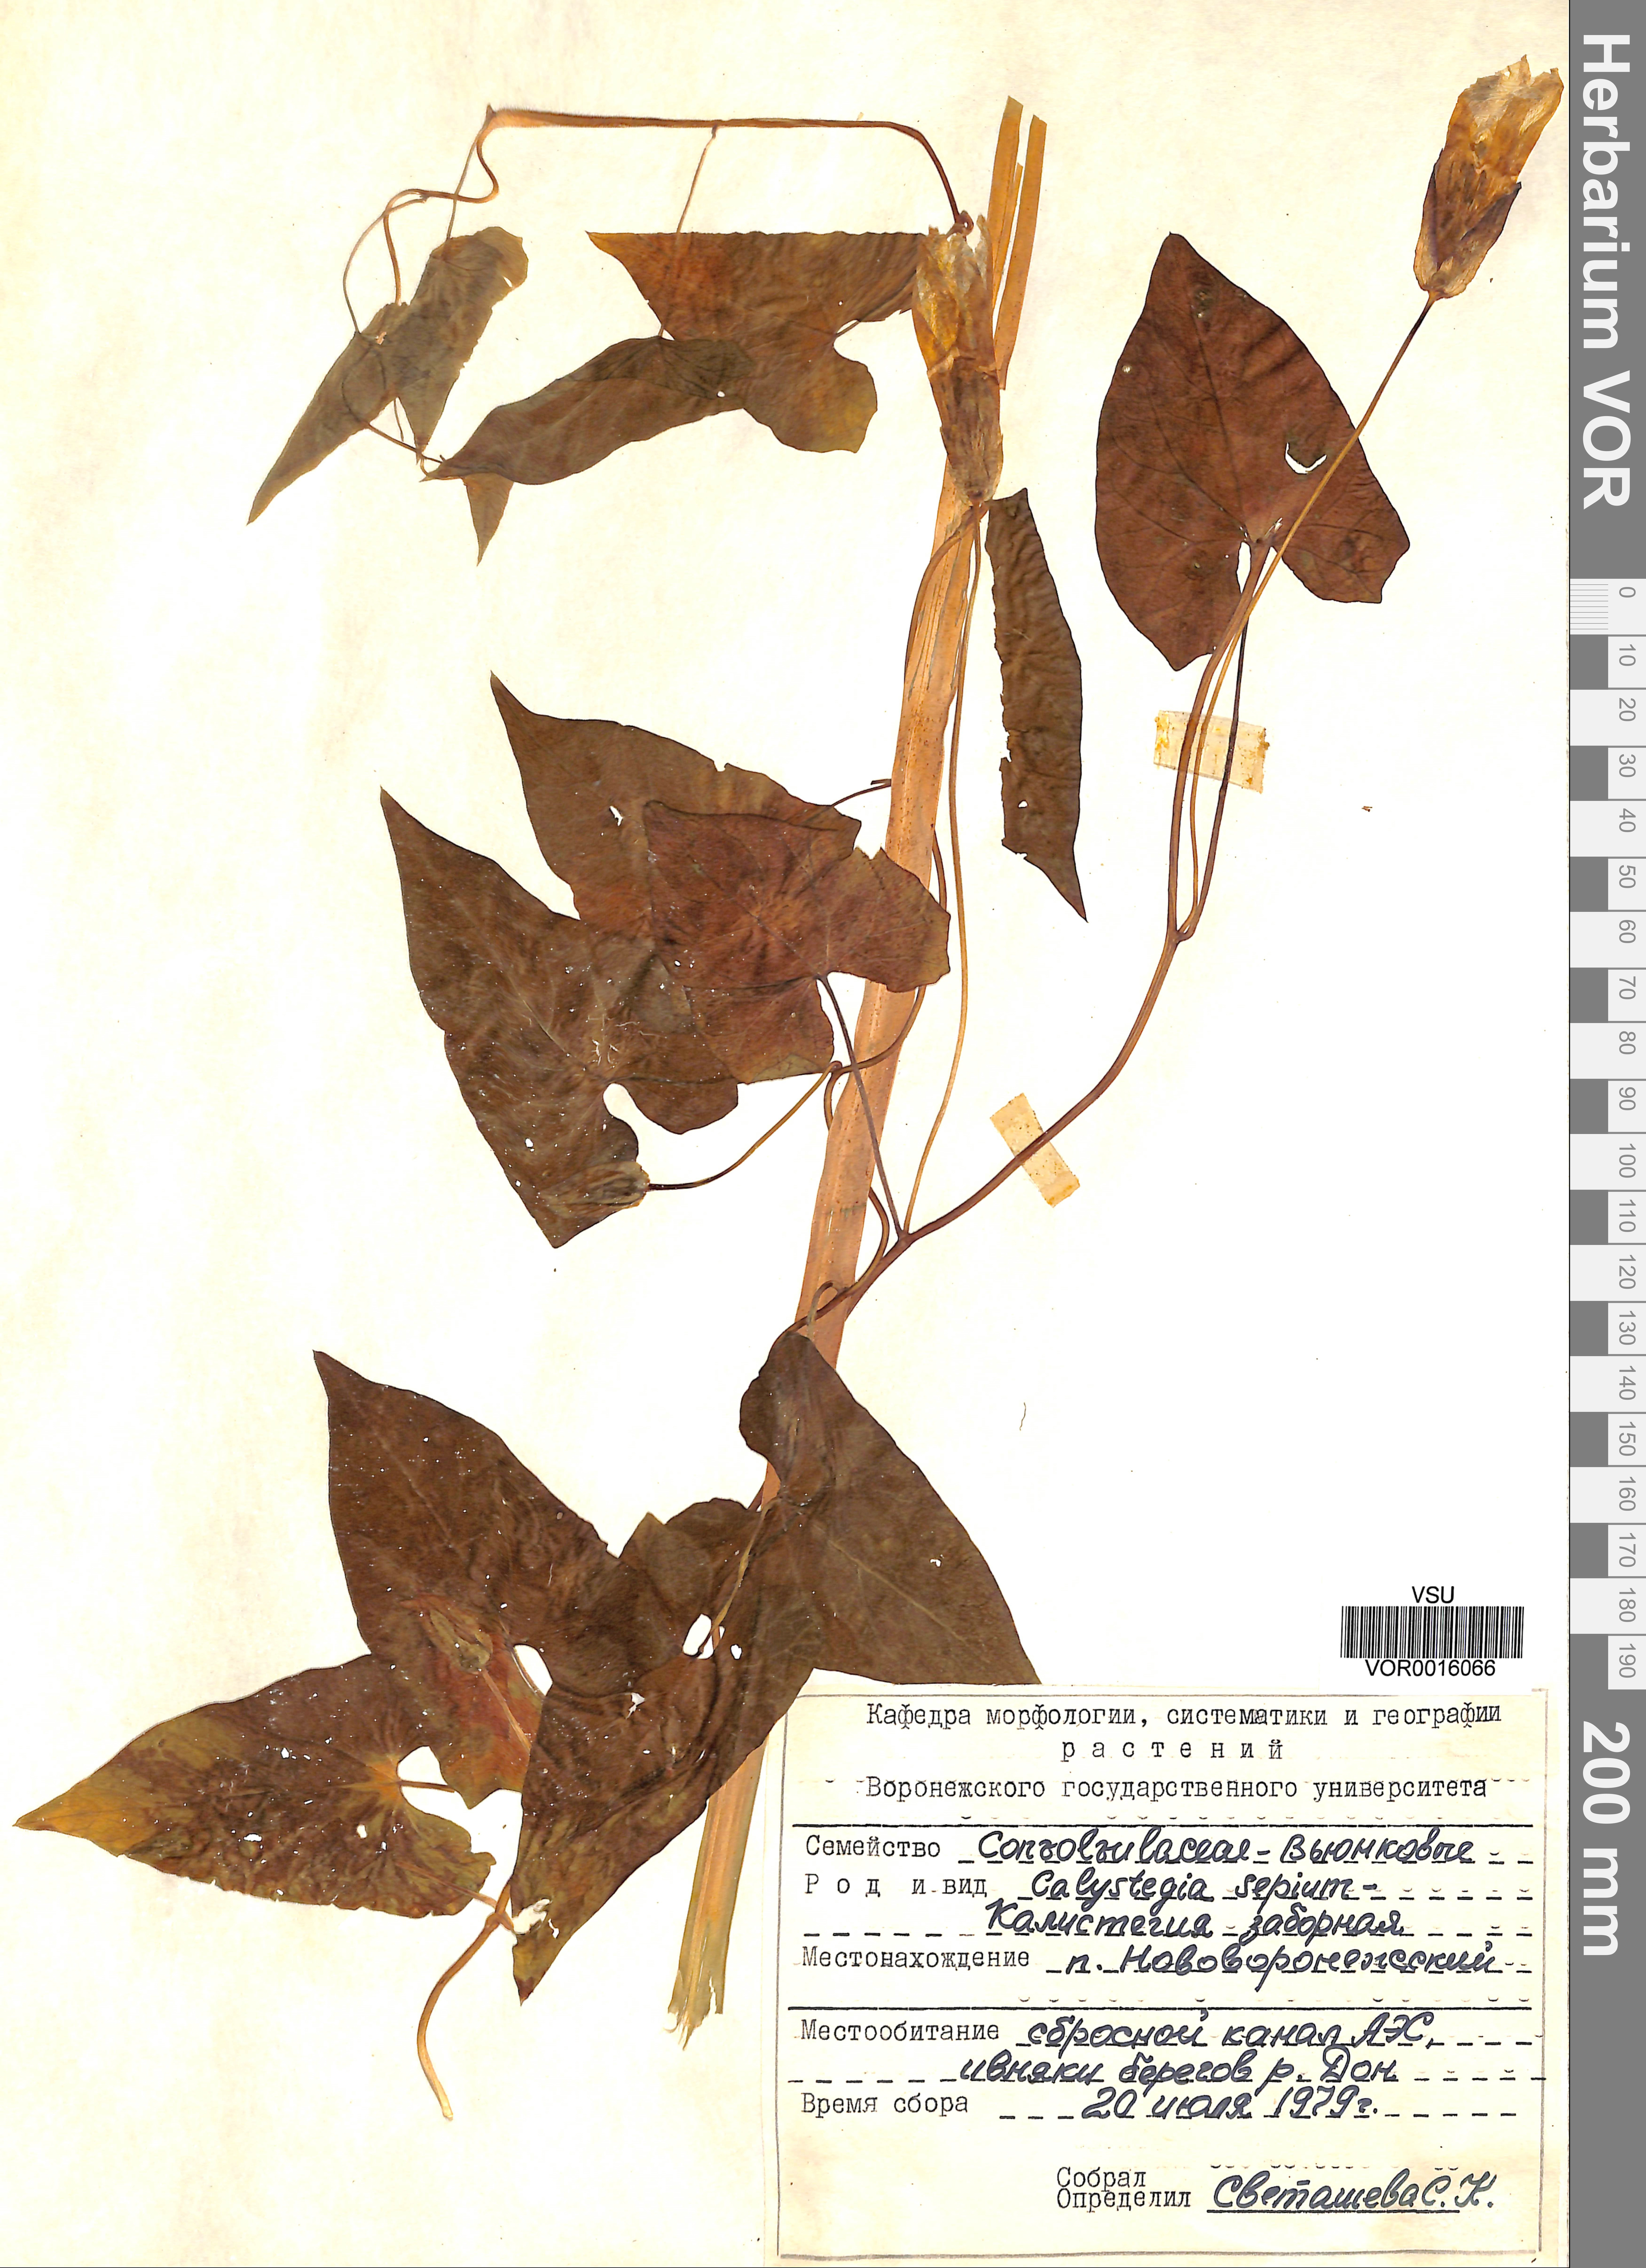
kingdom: Plantae
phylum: Tracheophyta
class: Magnoliopsida
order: Solanales
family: Convolvulaceae
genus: Calystegia
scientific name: Calystegia sepium
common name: Hedge bindweed
